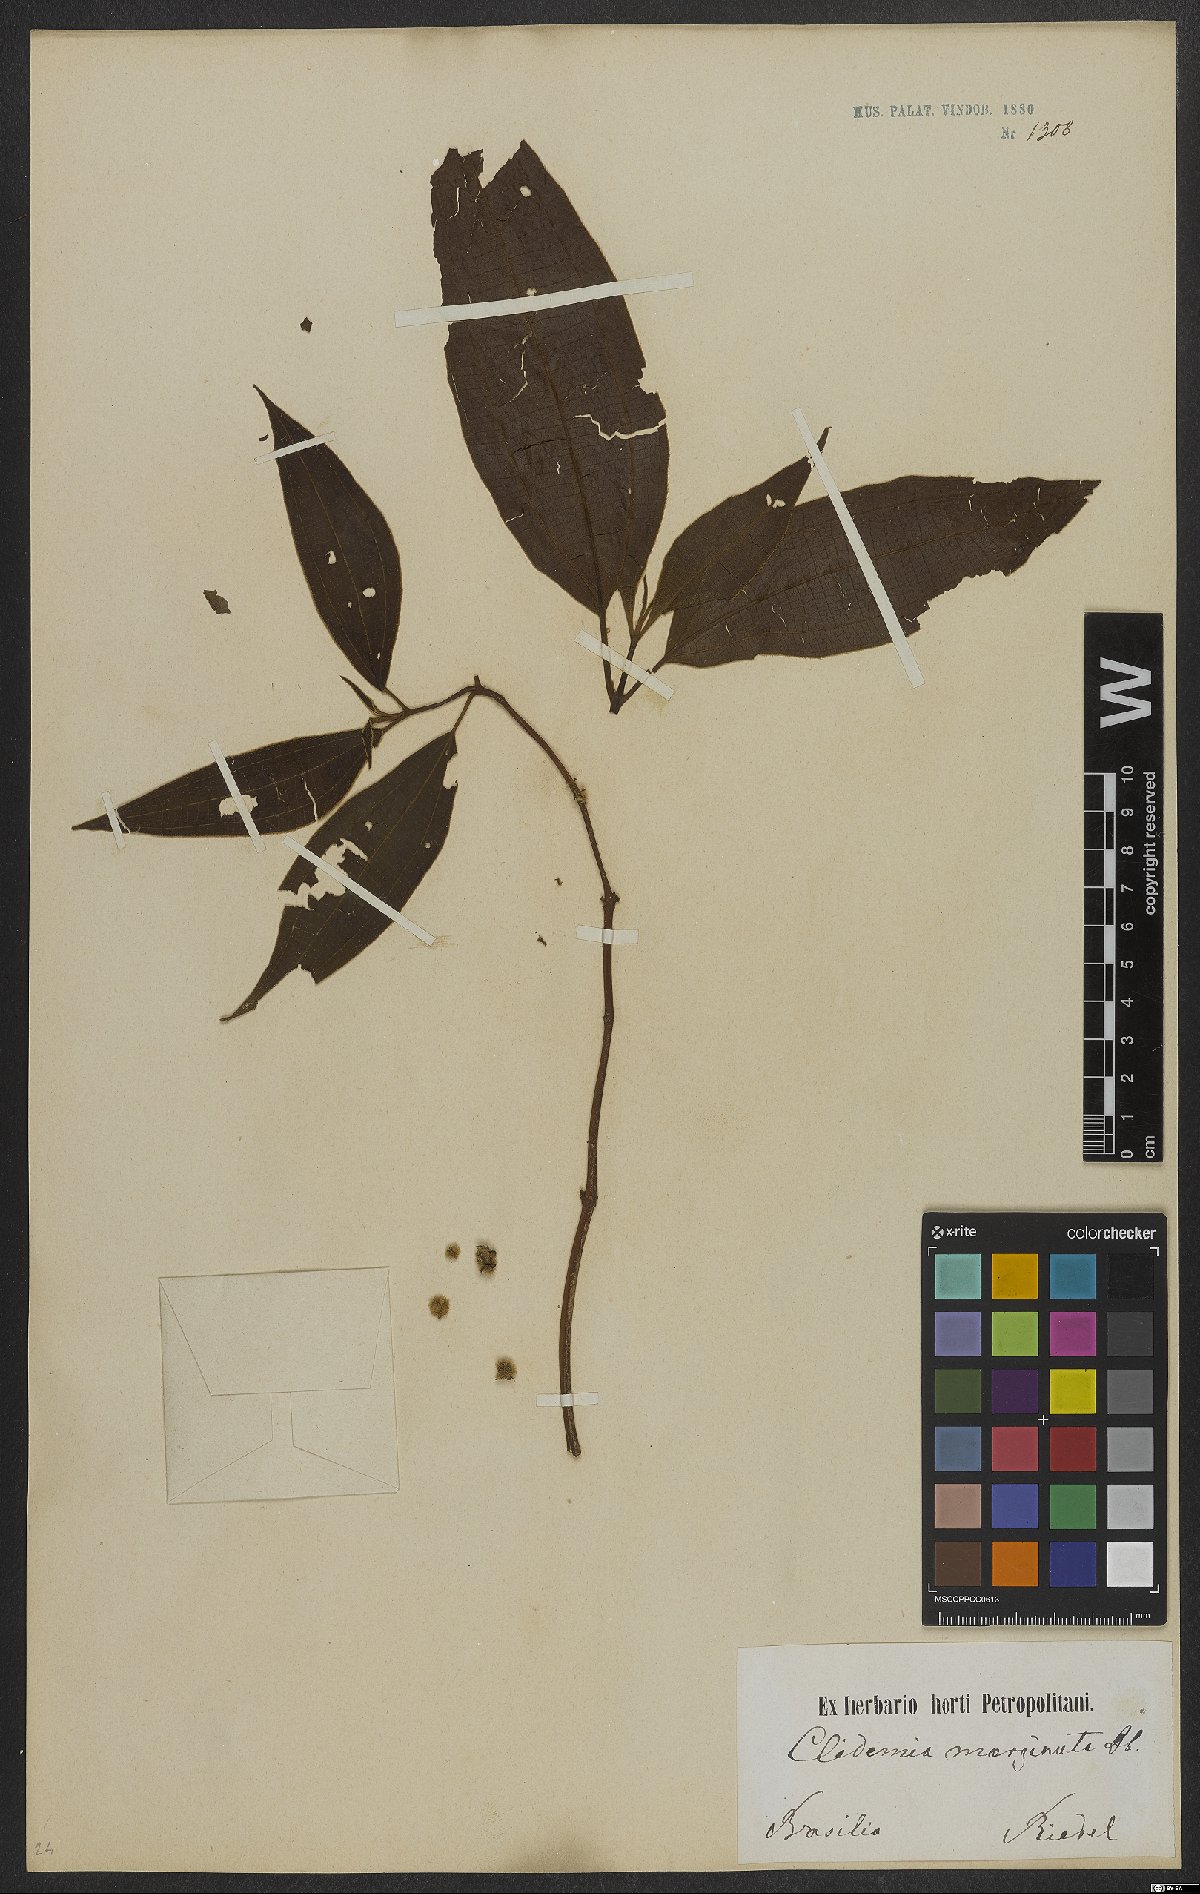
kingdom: Plantae
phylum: Tracheophyta
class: Magnoliopsida
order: Myrtales
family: Melastomataceae
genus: Miconia
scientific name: Miconia leamarginata
